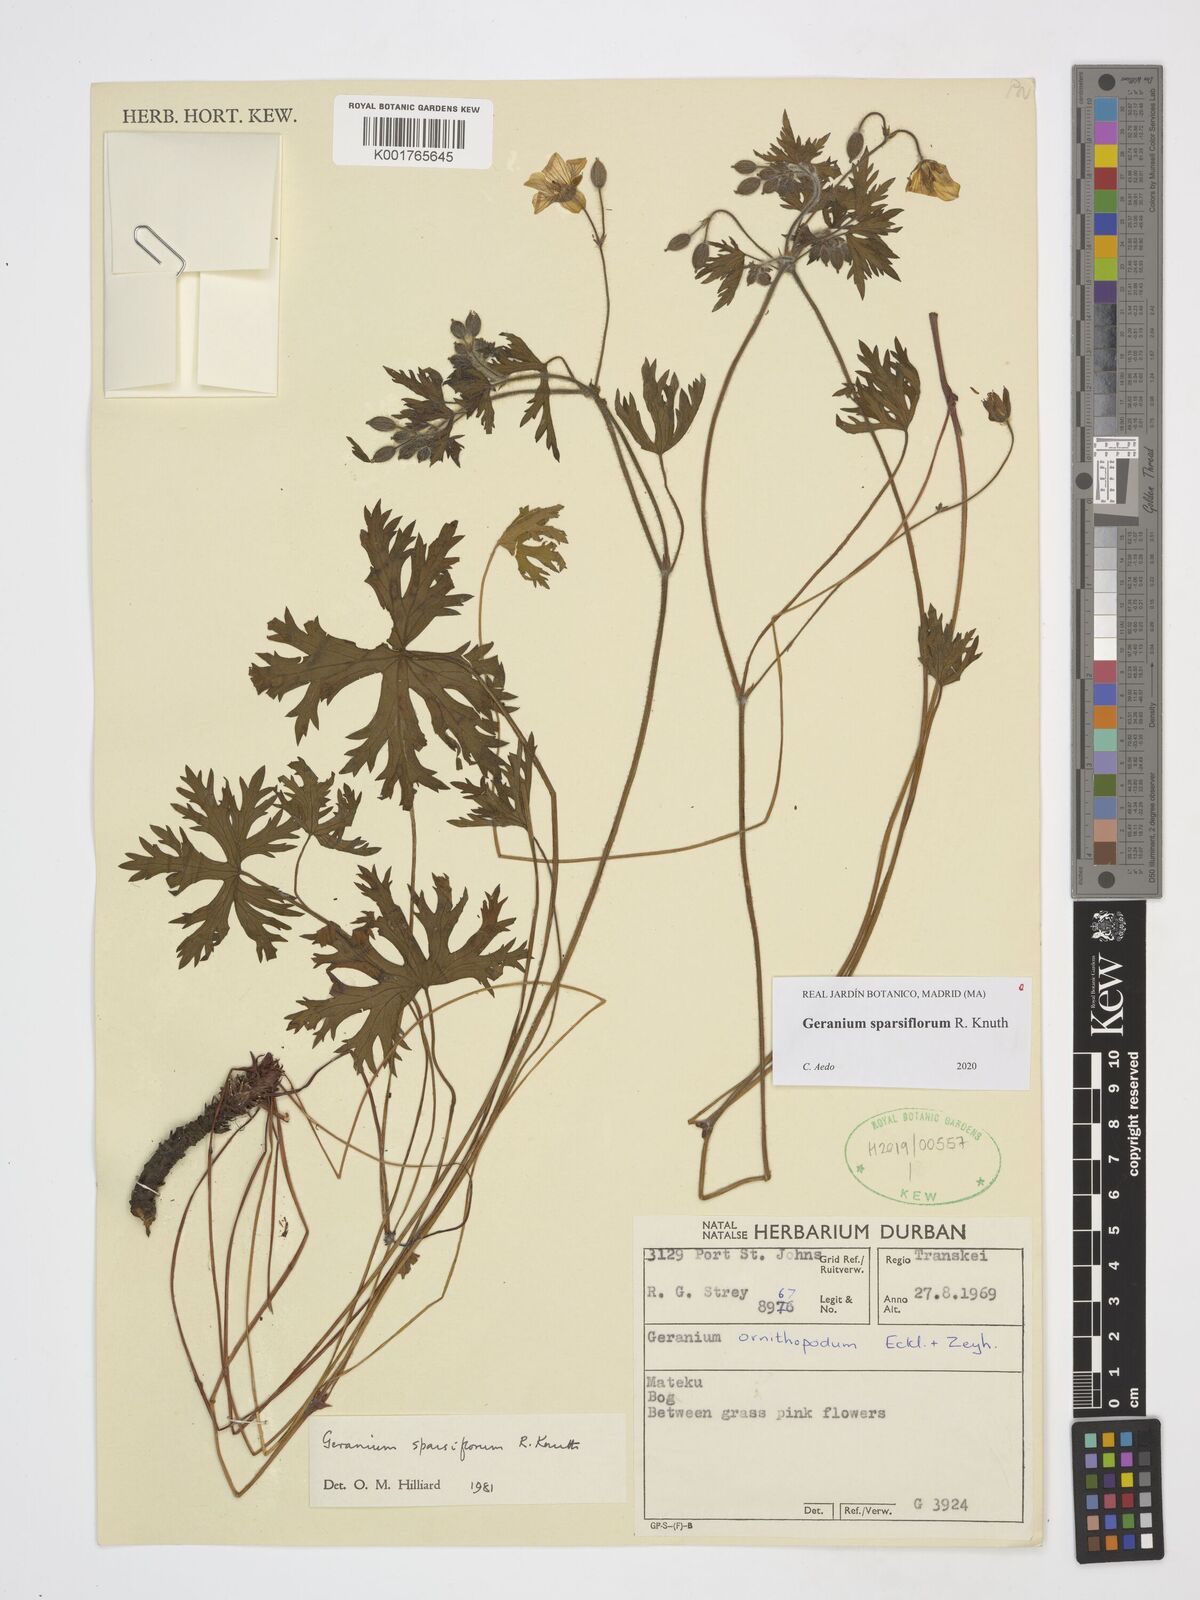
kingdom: Plantae
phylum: Tracheophyta
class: Magnoliopsida
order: Geraniales
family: Geraniaceae
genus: Geranium
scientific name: Geranium sparsiflorum
